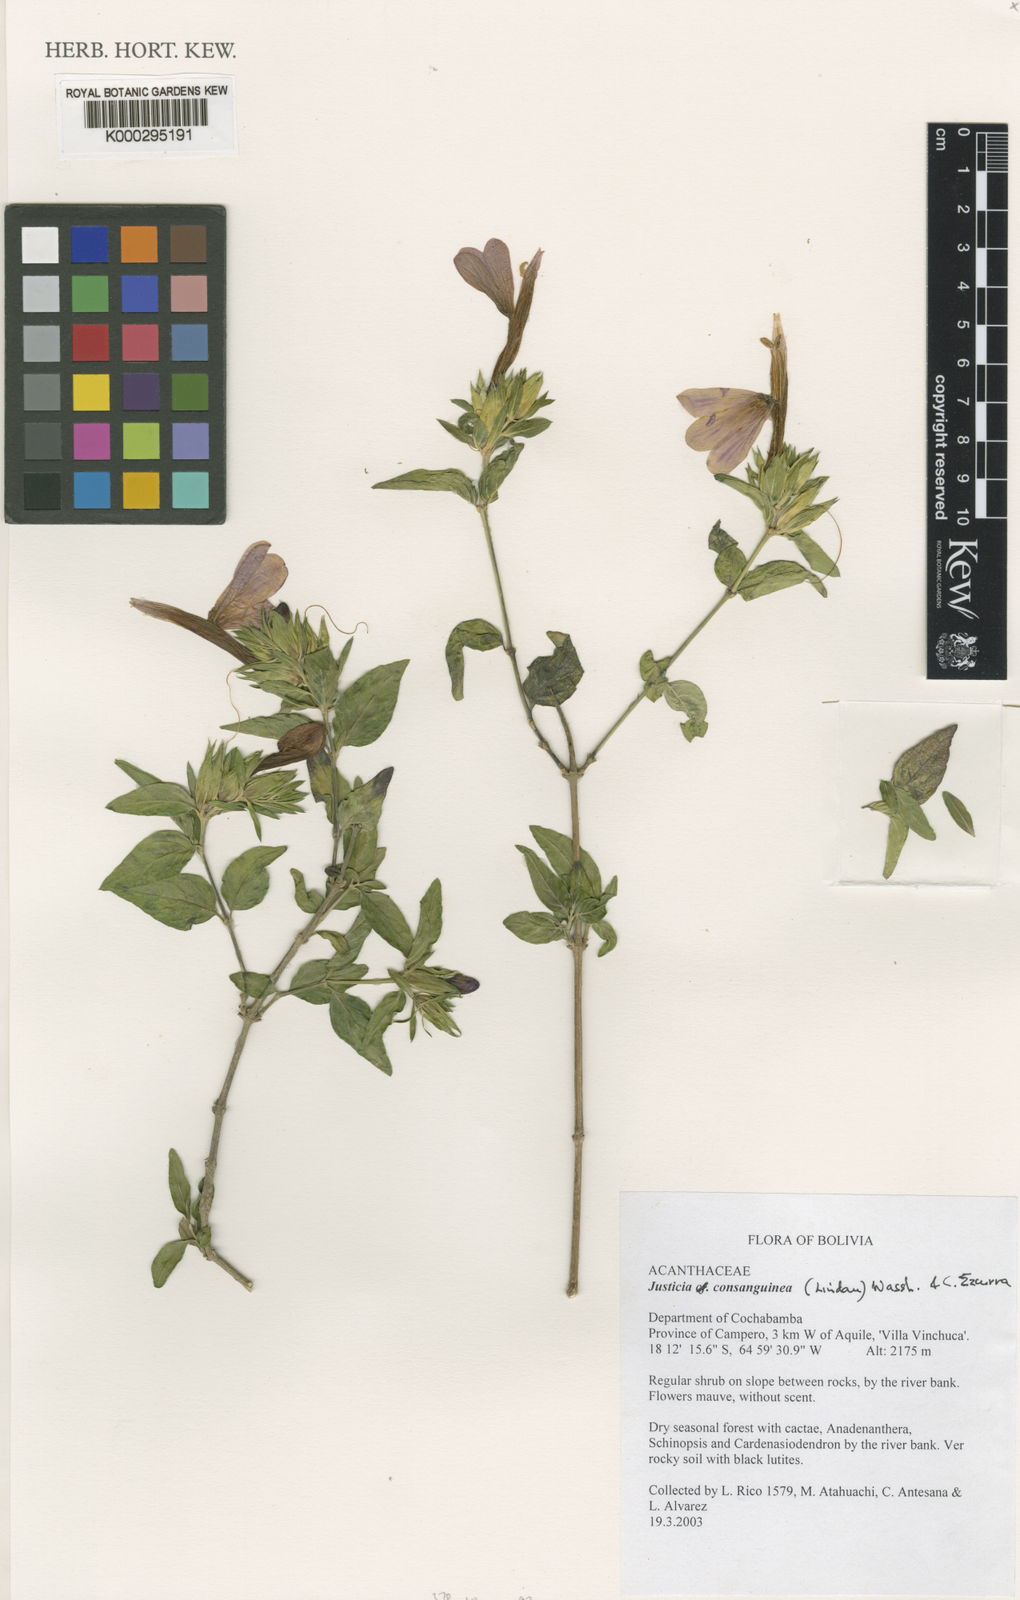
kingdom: Plantae
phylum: Tracheophyta
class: Magnoliopsida
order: Lamiales
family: Acanthaceae
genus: Justicia
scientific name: Justicia consanguinea
